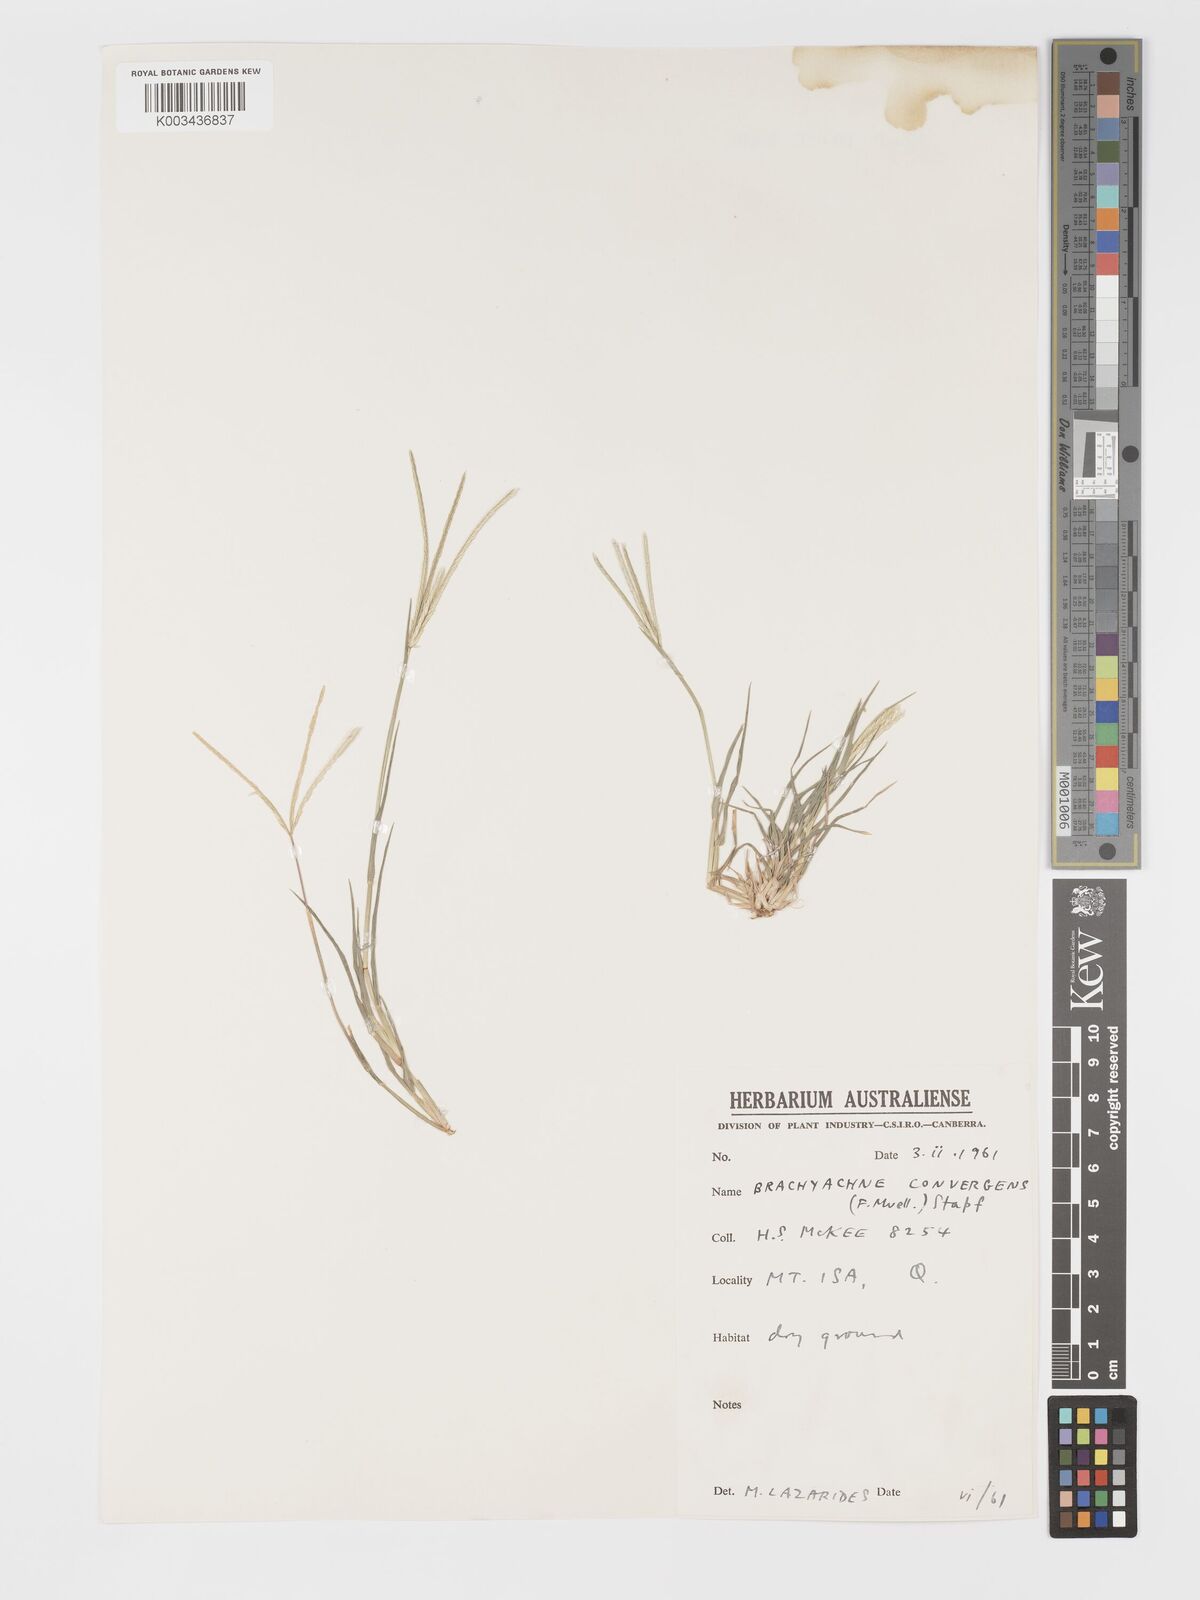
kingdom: Plantae
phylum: Tracheophyta
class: Liliopsida
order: Poales
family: Poaceae
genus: Cynodon
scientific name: Cynodon convergens
